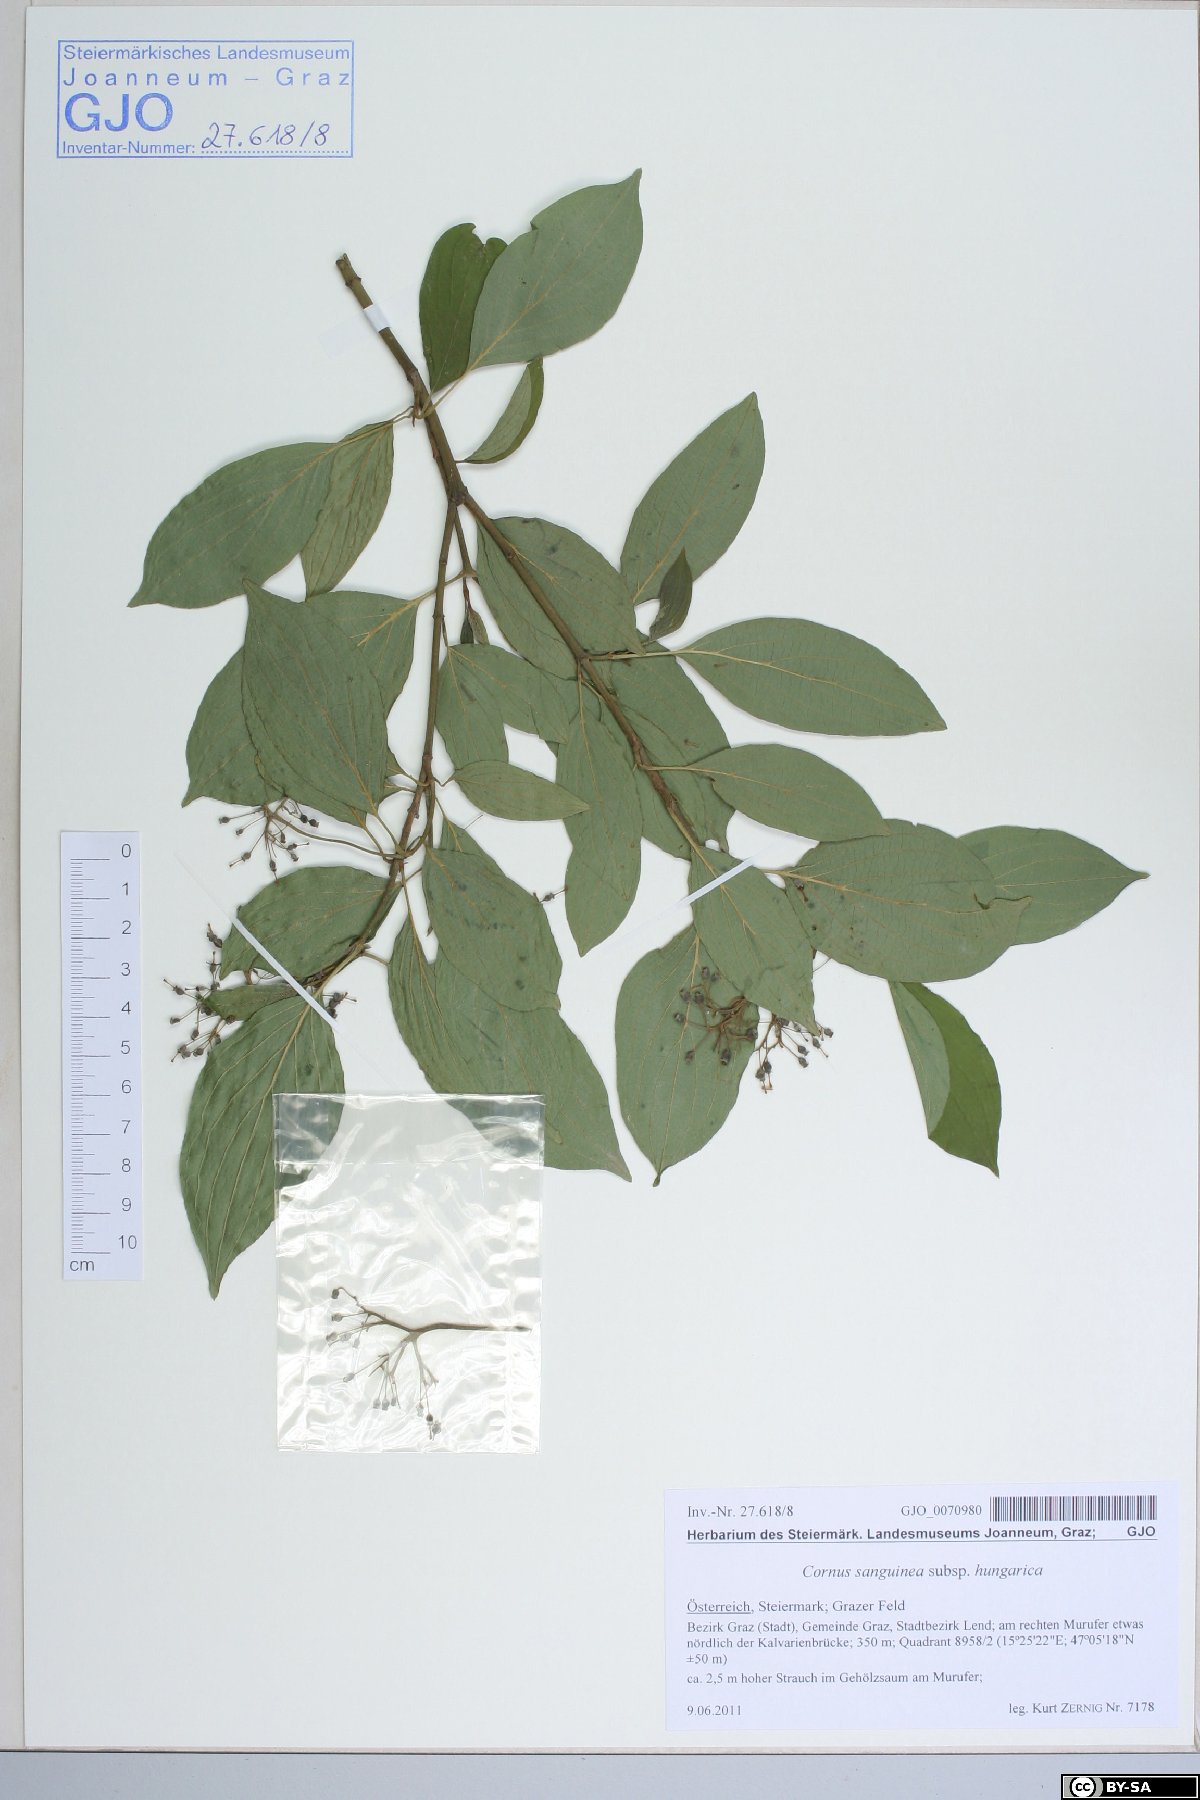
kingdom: Plantae
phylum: Tracheophyta
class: Magnoliopsida
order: Cornales
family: Cornaceae
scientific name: Cornaceae
